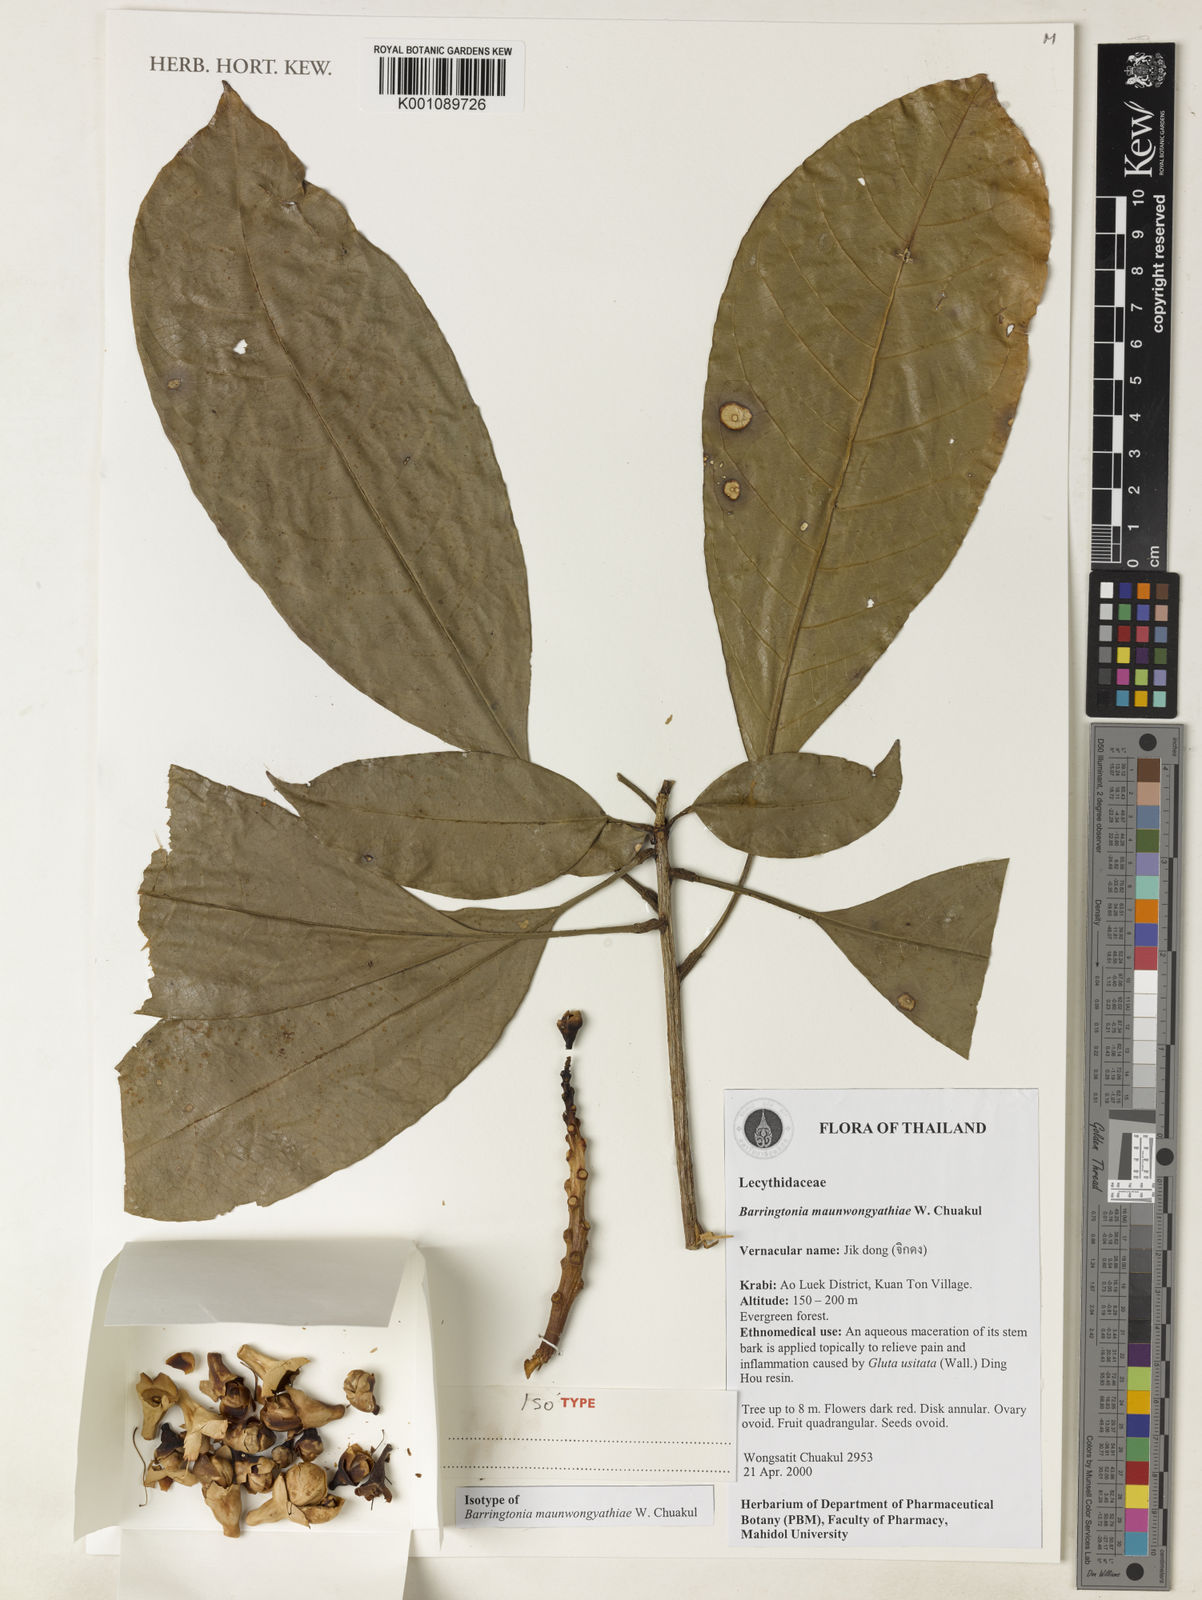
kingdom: Plantae
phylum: Tracheophyta
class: Magnoliopsida
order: Ericales
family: Lecythidaceae
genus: Barringtonia
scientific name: Barringtonia pauciflora
